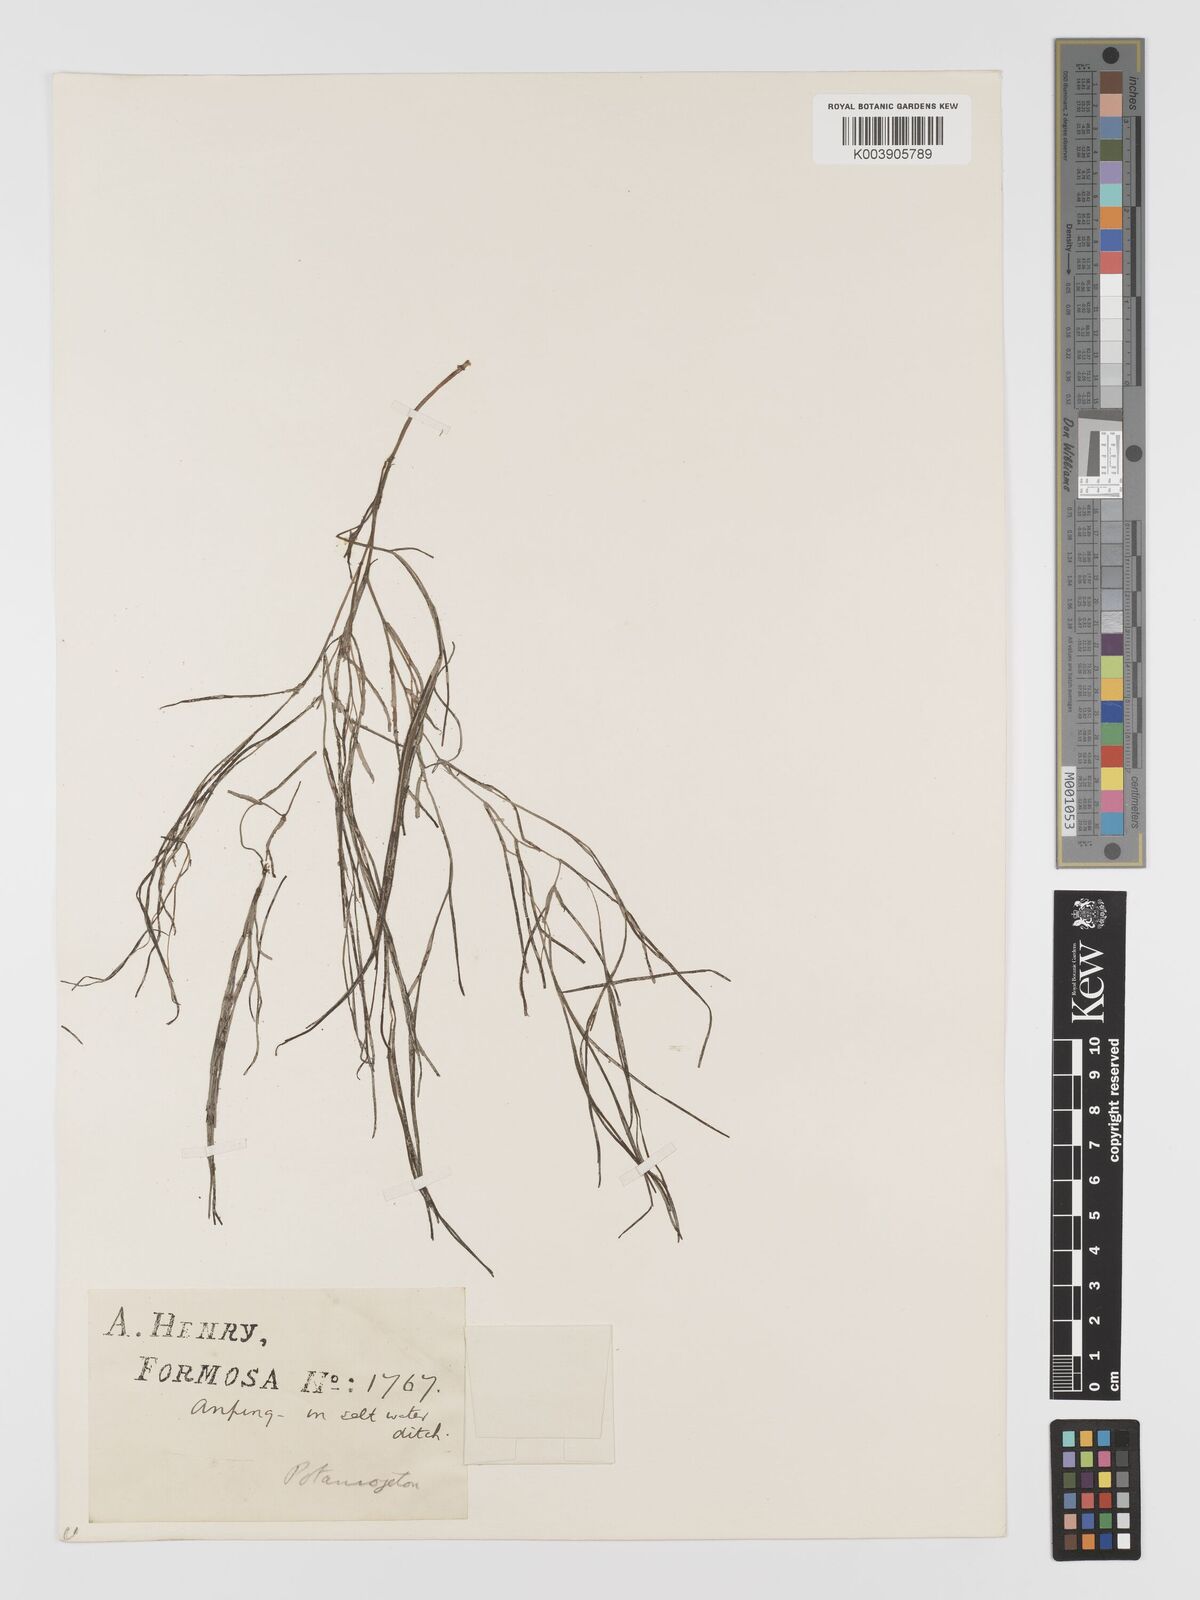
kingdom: Plantae
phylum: Tracheophyta
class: Liliopsida
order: Alismatales
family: Potamogetonaceae
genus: Stuckenia
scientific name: Stuckenia pectinata
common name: Sago pondweed
